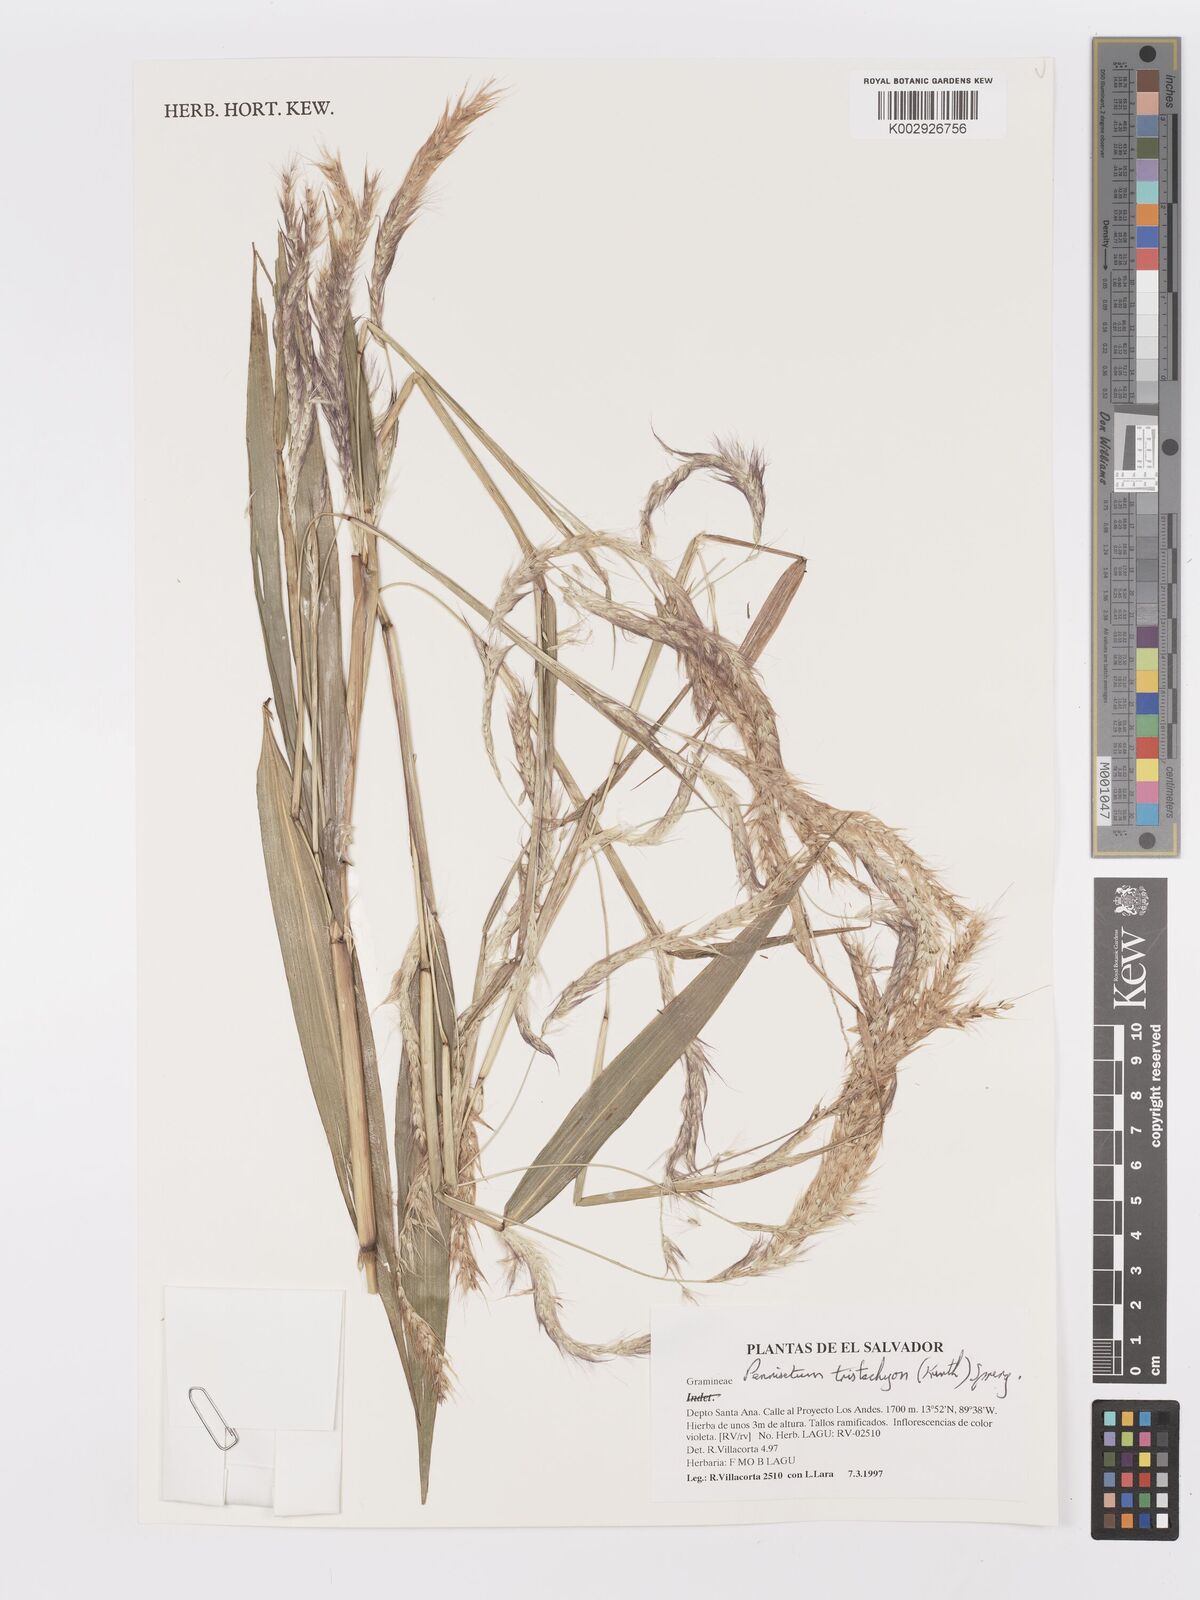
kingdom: Plantae
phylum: Tracheophyta
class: Liliopsida
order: Poales
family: Poaceae
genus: Cenchrus
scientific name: Cenchrus tristachyus
